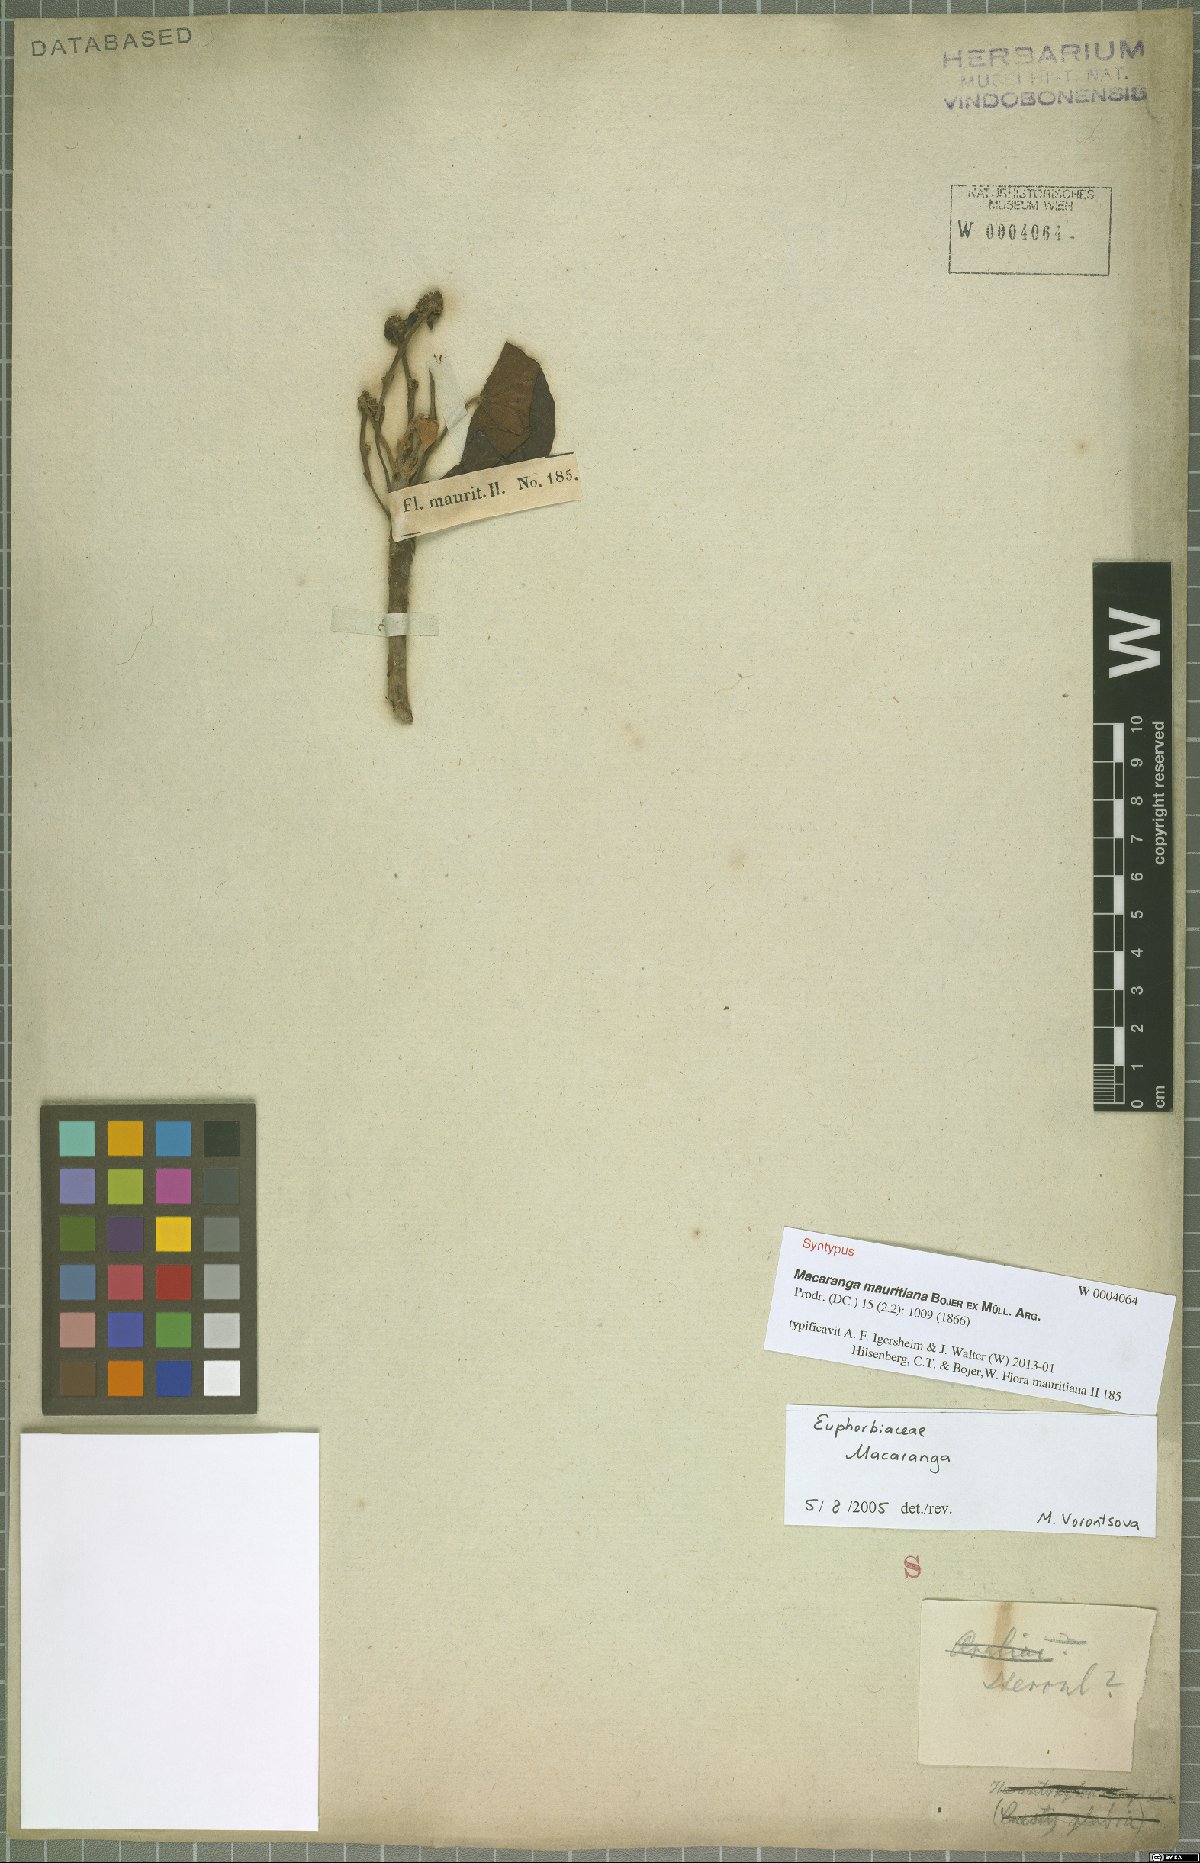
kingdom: Plantae
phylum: Tracheophyta
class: Magnoliopsida
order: Malpighiales
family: Euphorbiaceae
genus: Macaranga
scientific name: Macaranga mauritiana
